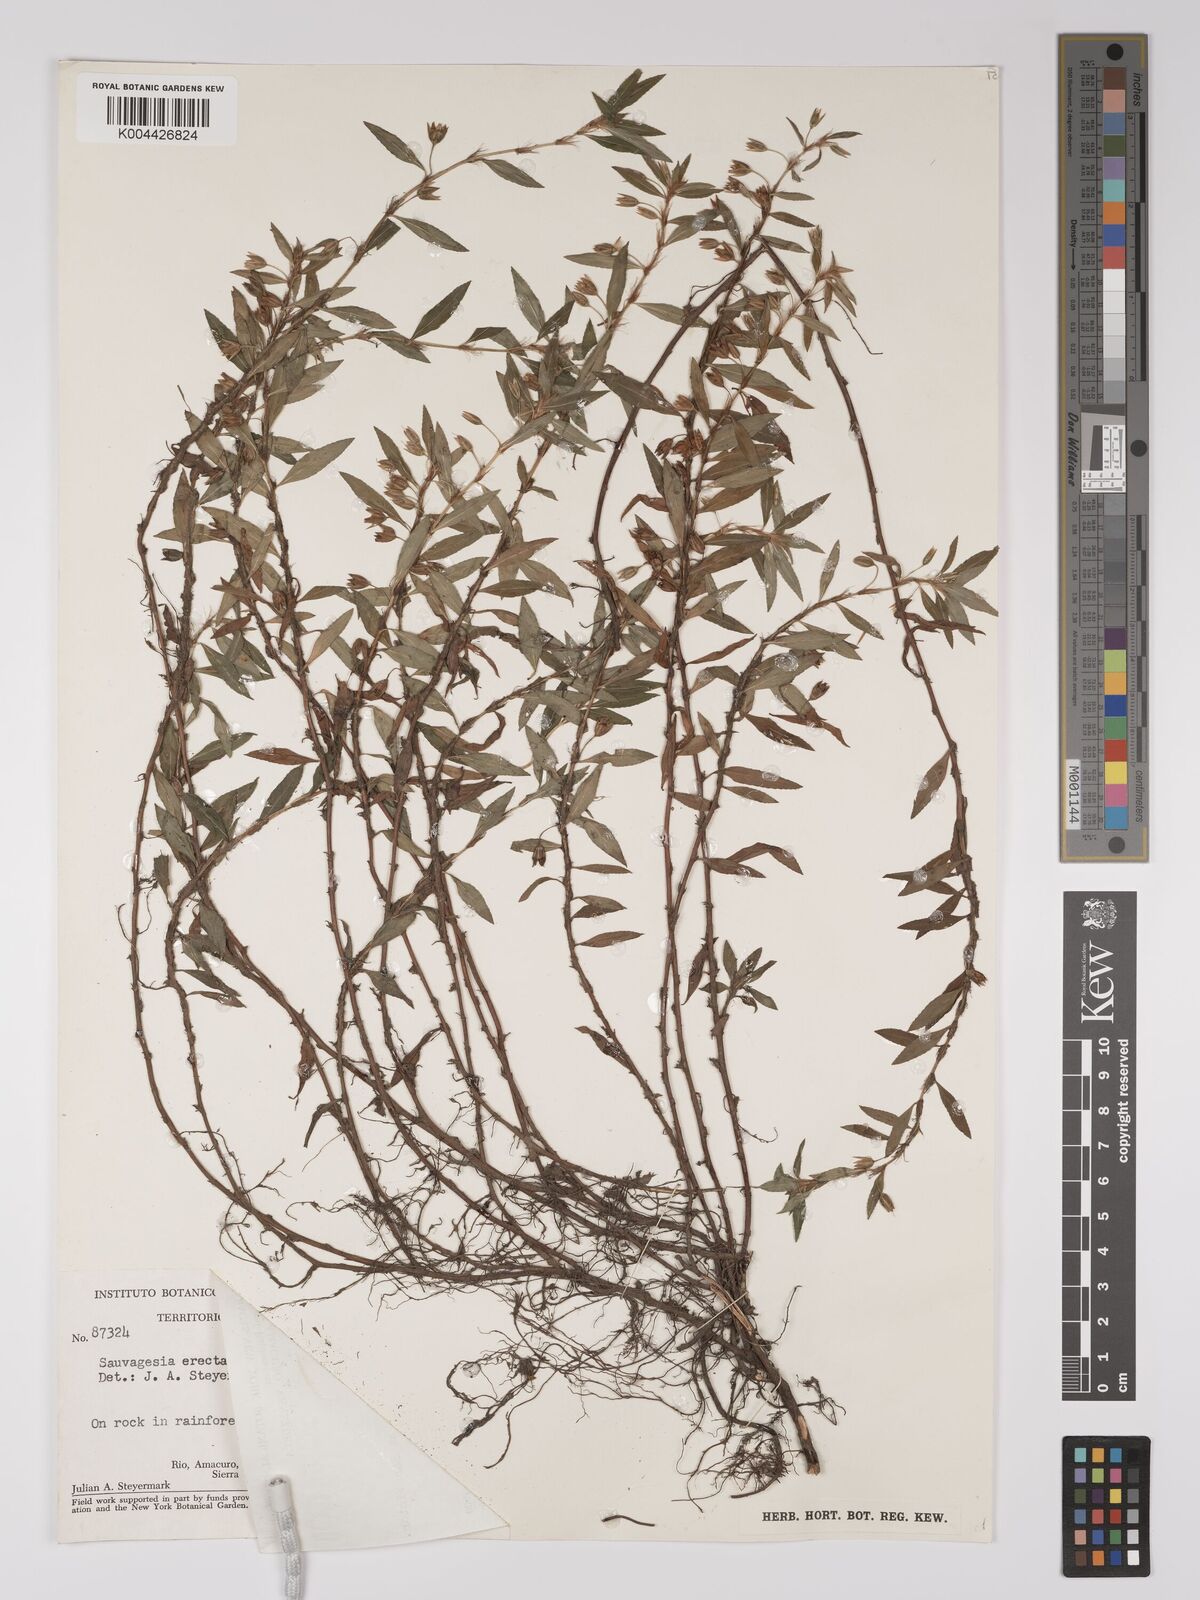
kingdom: Plantae
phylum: Tracheophyta
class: Magnoliopsida
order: Malpighiales
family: Ochnaceae
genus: Sauvagesia
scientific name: Sauvagesia erecta
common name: Creole tea
